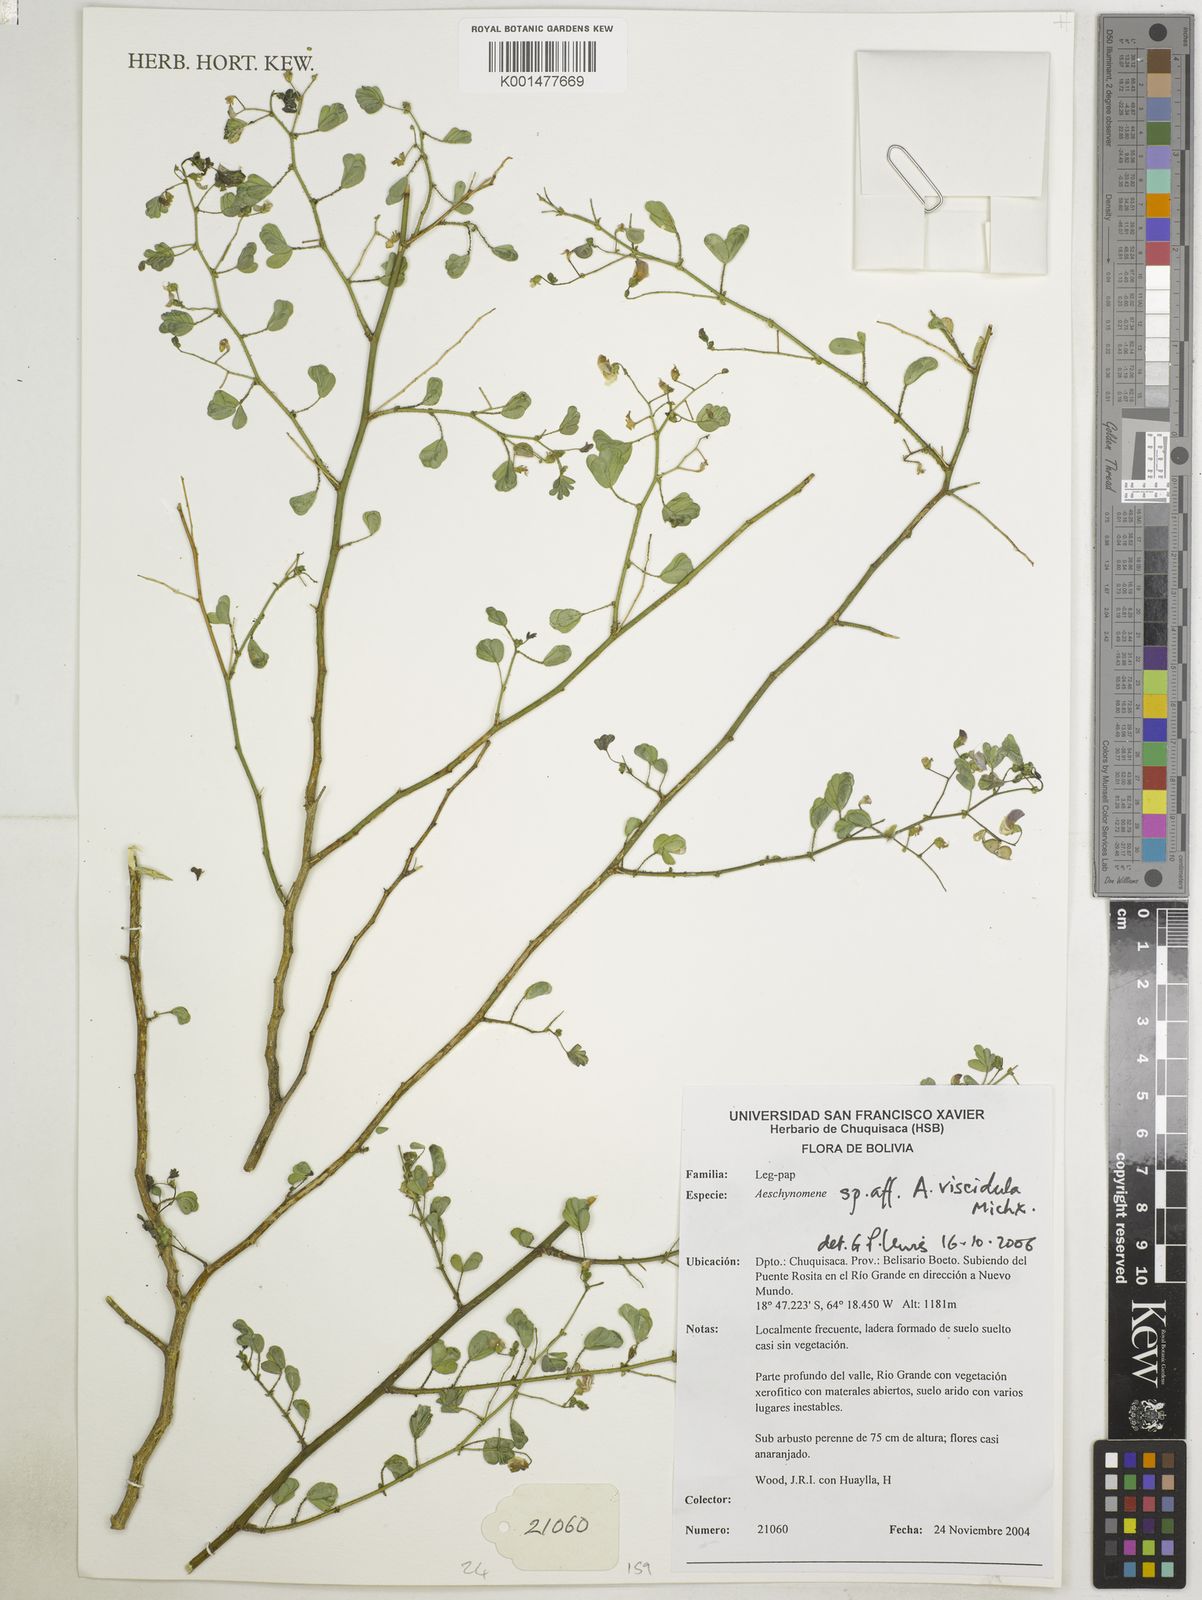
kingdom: Plantae
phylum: Tracheophyta
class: Magnoliopsida
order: Fabales
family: Fabaceae
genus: Ctenodon
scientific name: Ctenodon viscidulus
